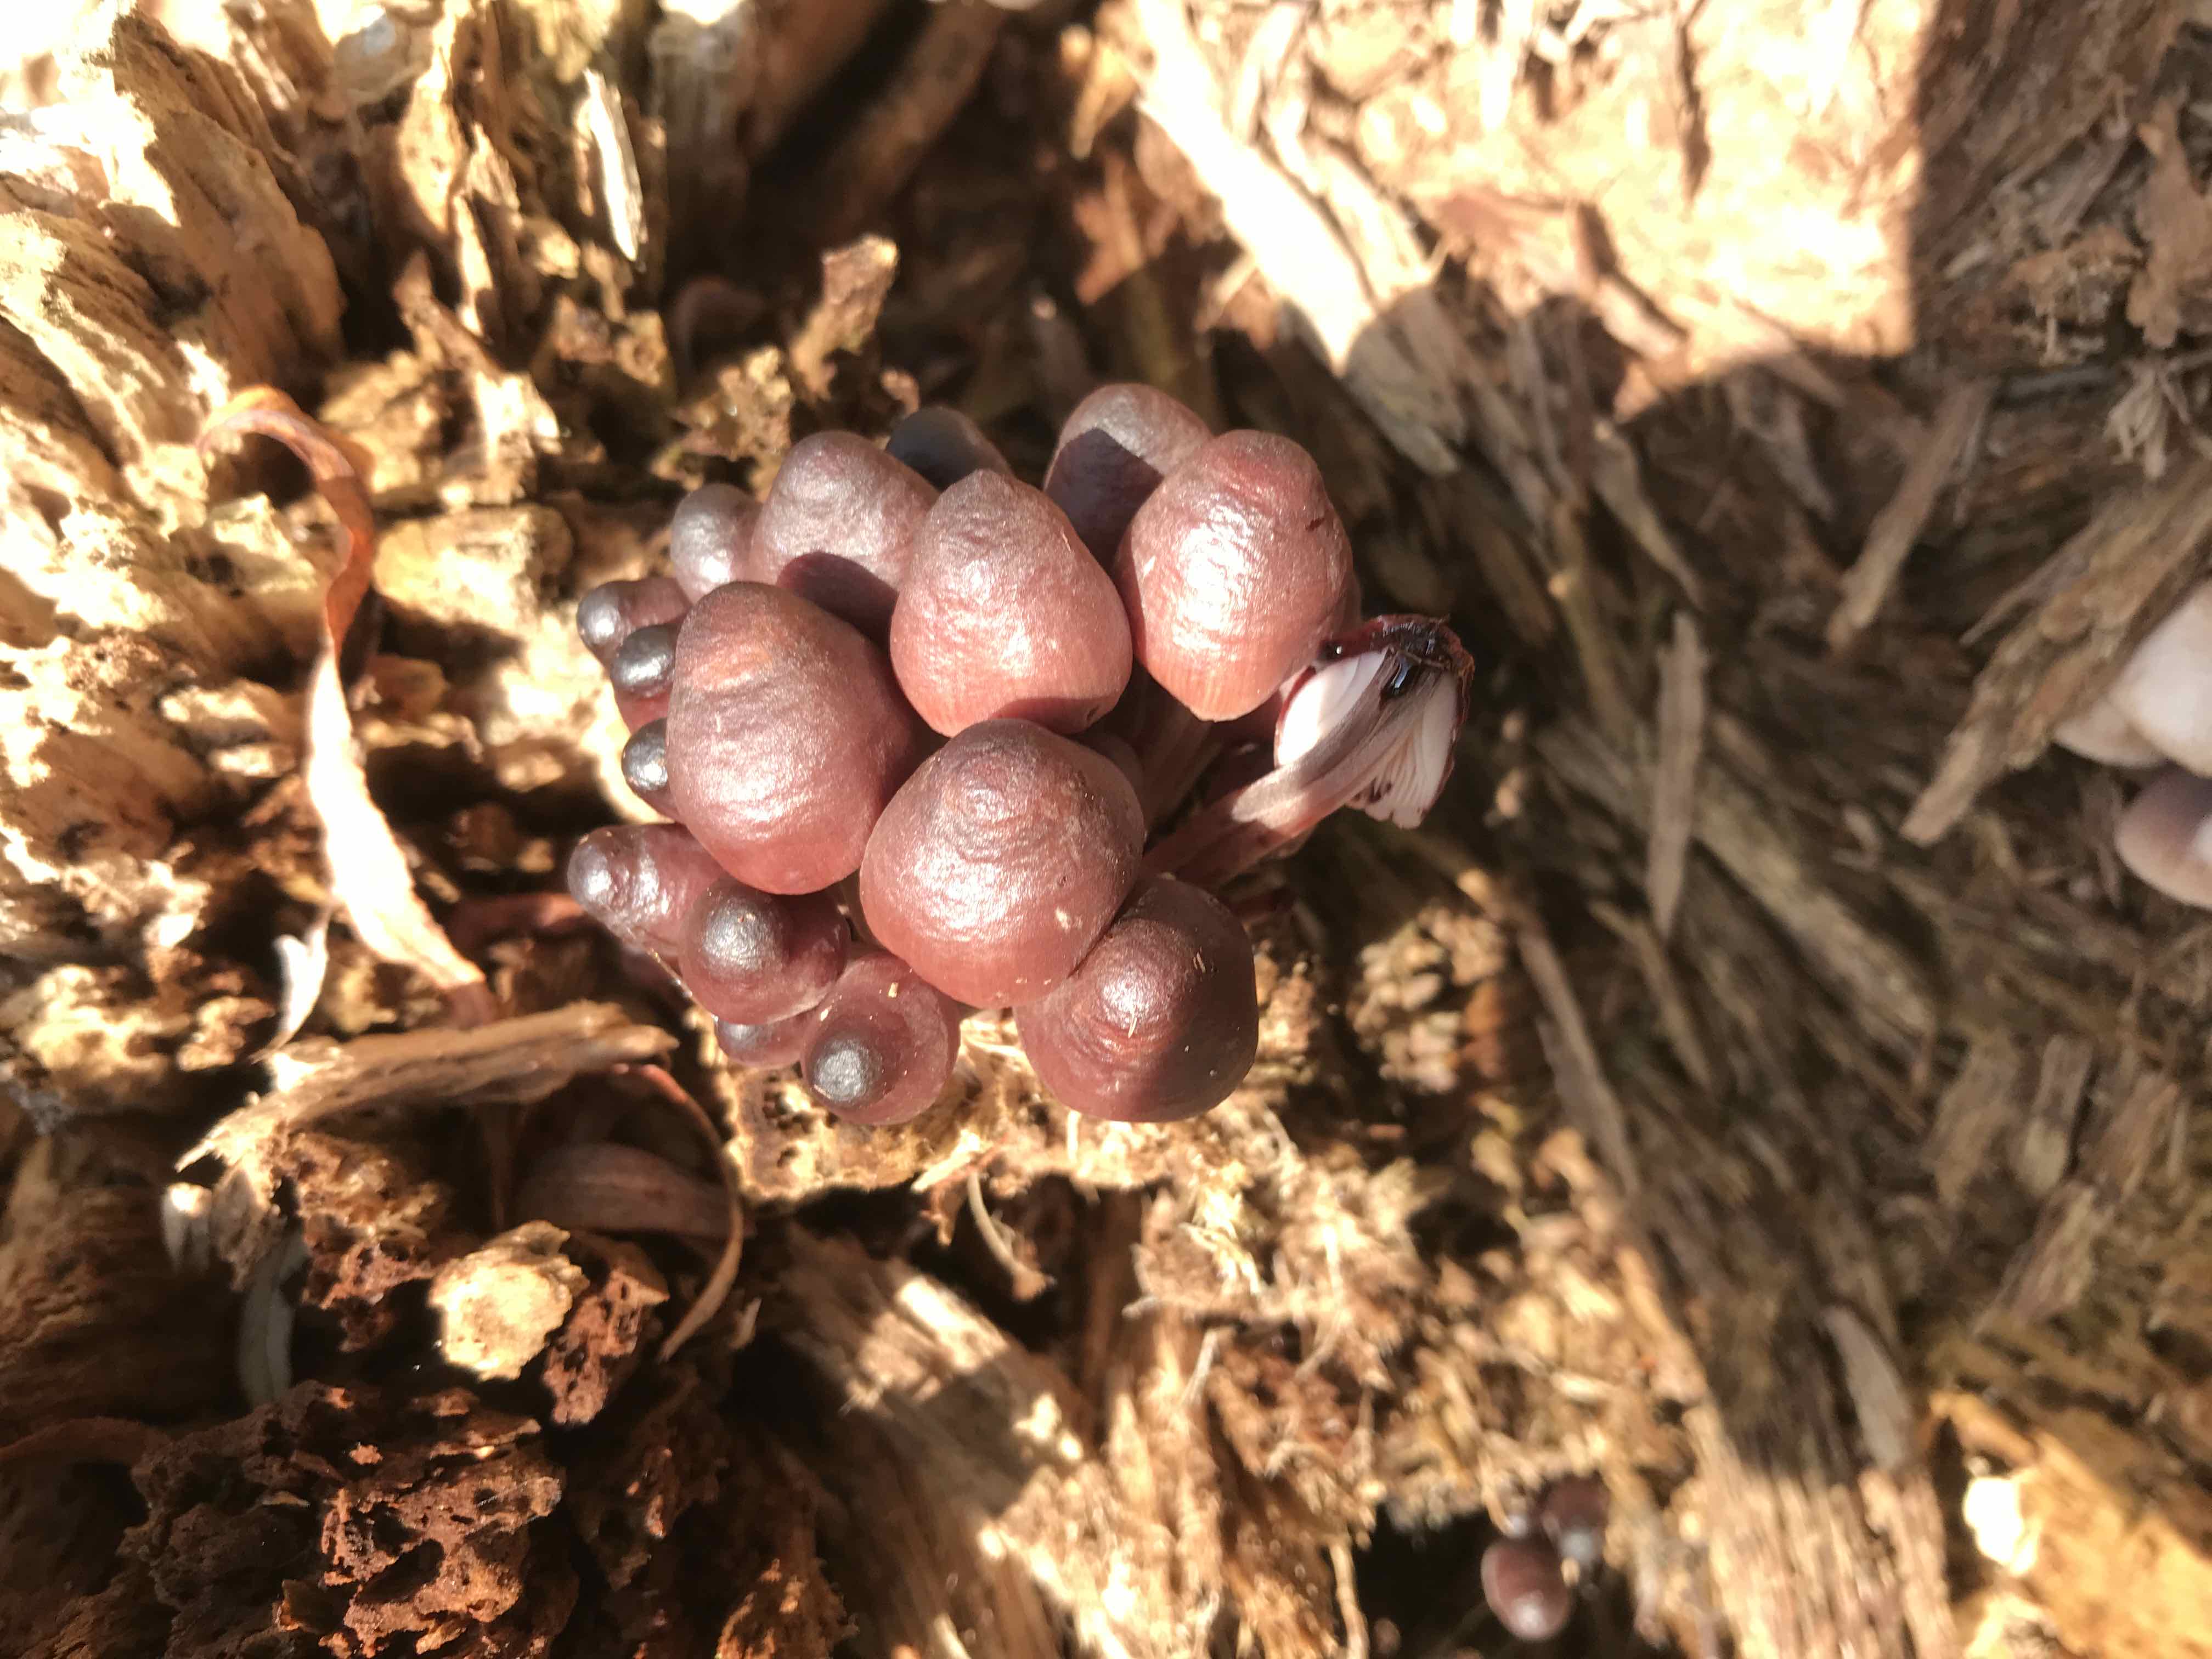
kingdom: Fungi
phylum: Basidiomycota
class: Agaricomycetes
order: Agaricales
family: Mycenaceae
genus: Mycena
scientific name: Mycena haematopus
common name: blødende huesvamp
